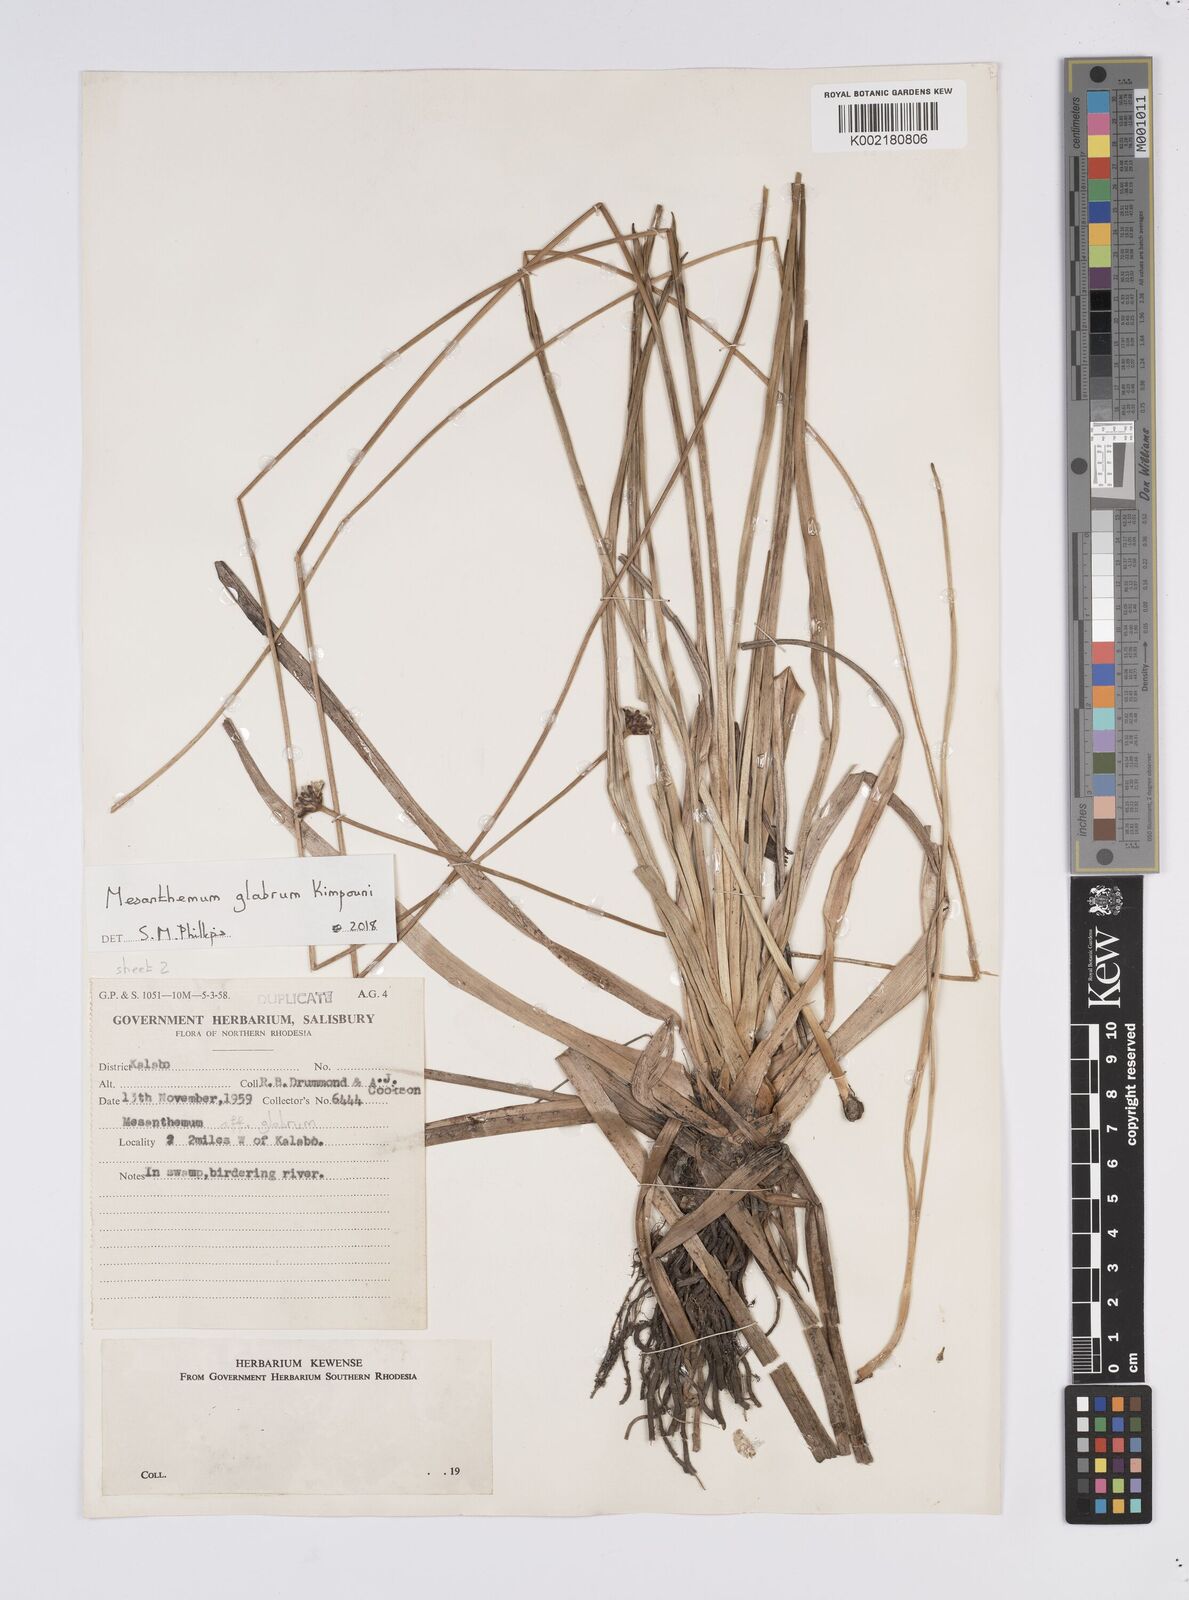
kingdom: Plantae
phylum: Tracheophyta
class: Liliopsida
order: Poales
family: Eriocaulaceae
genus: Mesanthemum
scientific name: Mesanthemum glabrum
